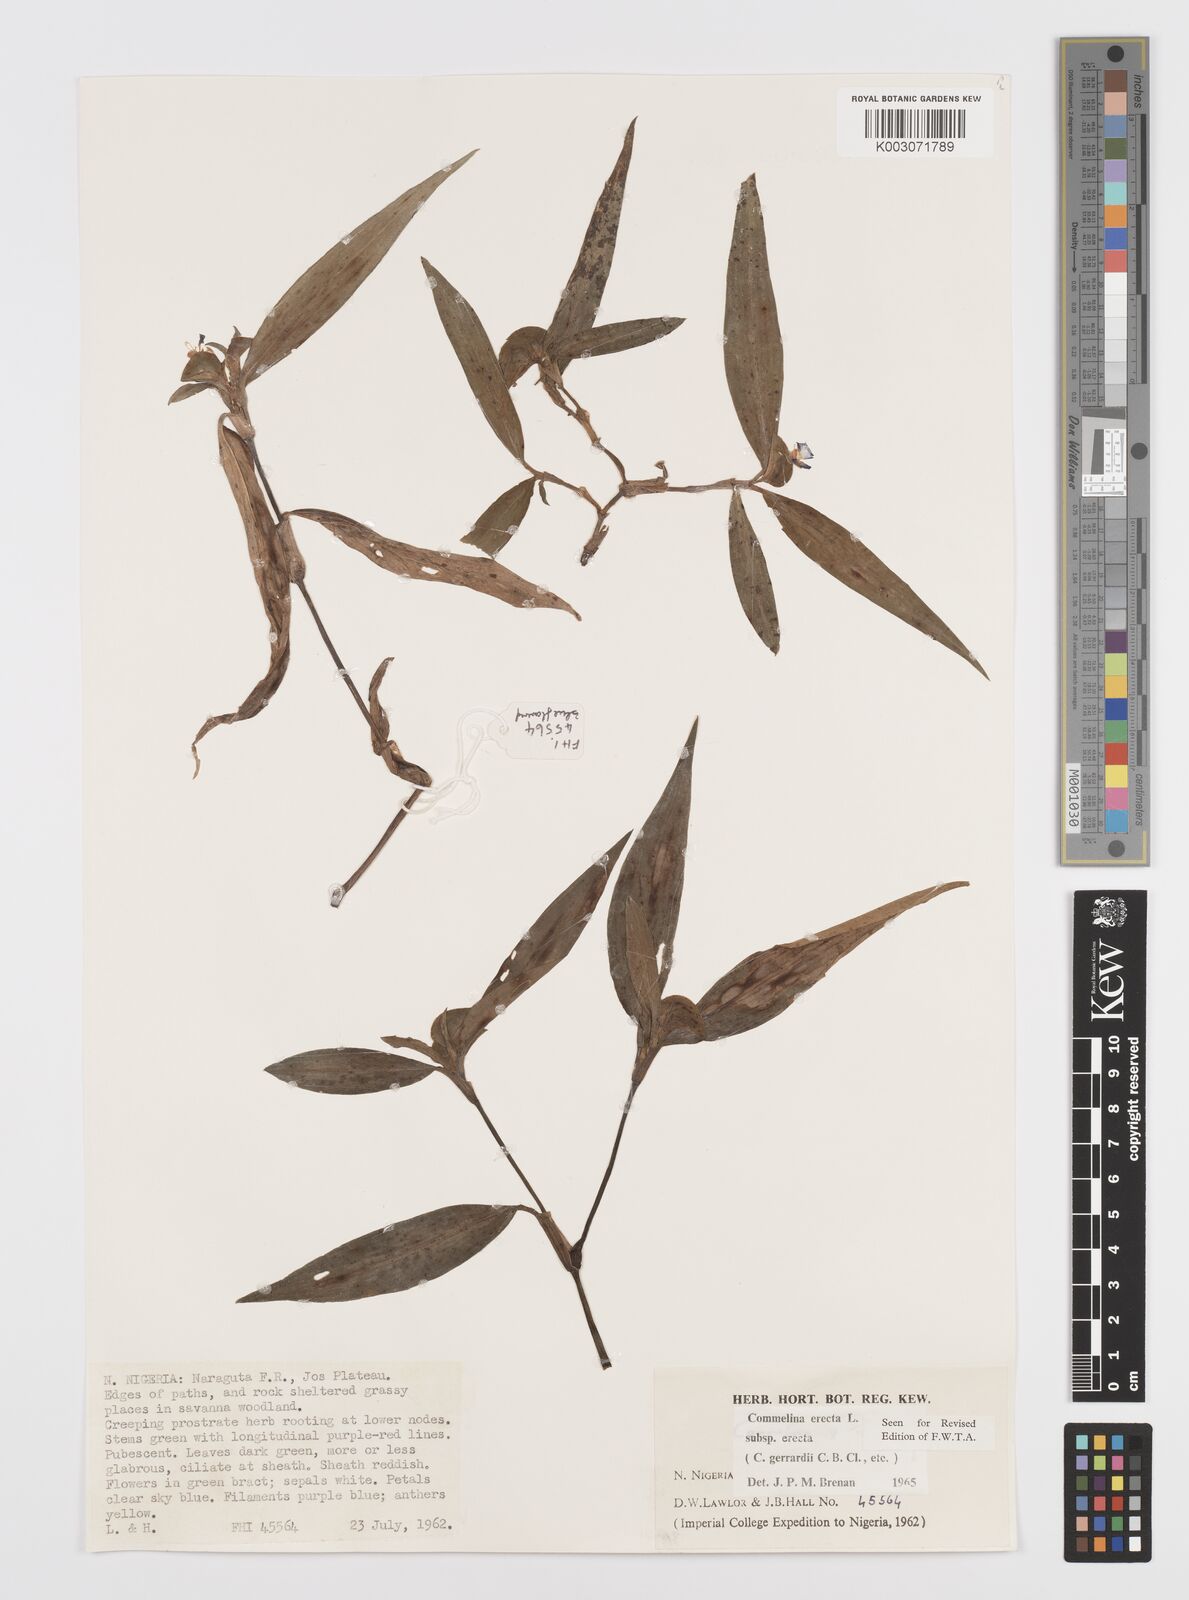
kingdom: Plantae
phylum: Tracheophyta
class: Liliopsida
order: Commelinales
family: Commelinaceae
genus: Commelina
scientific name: Commelina erecta
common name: Blousel blommetjie
